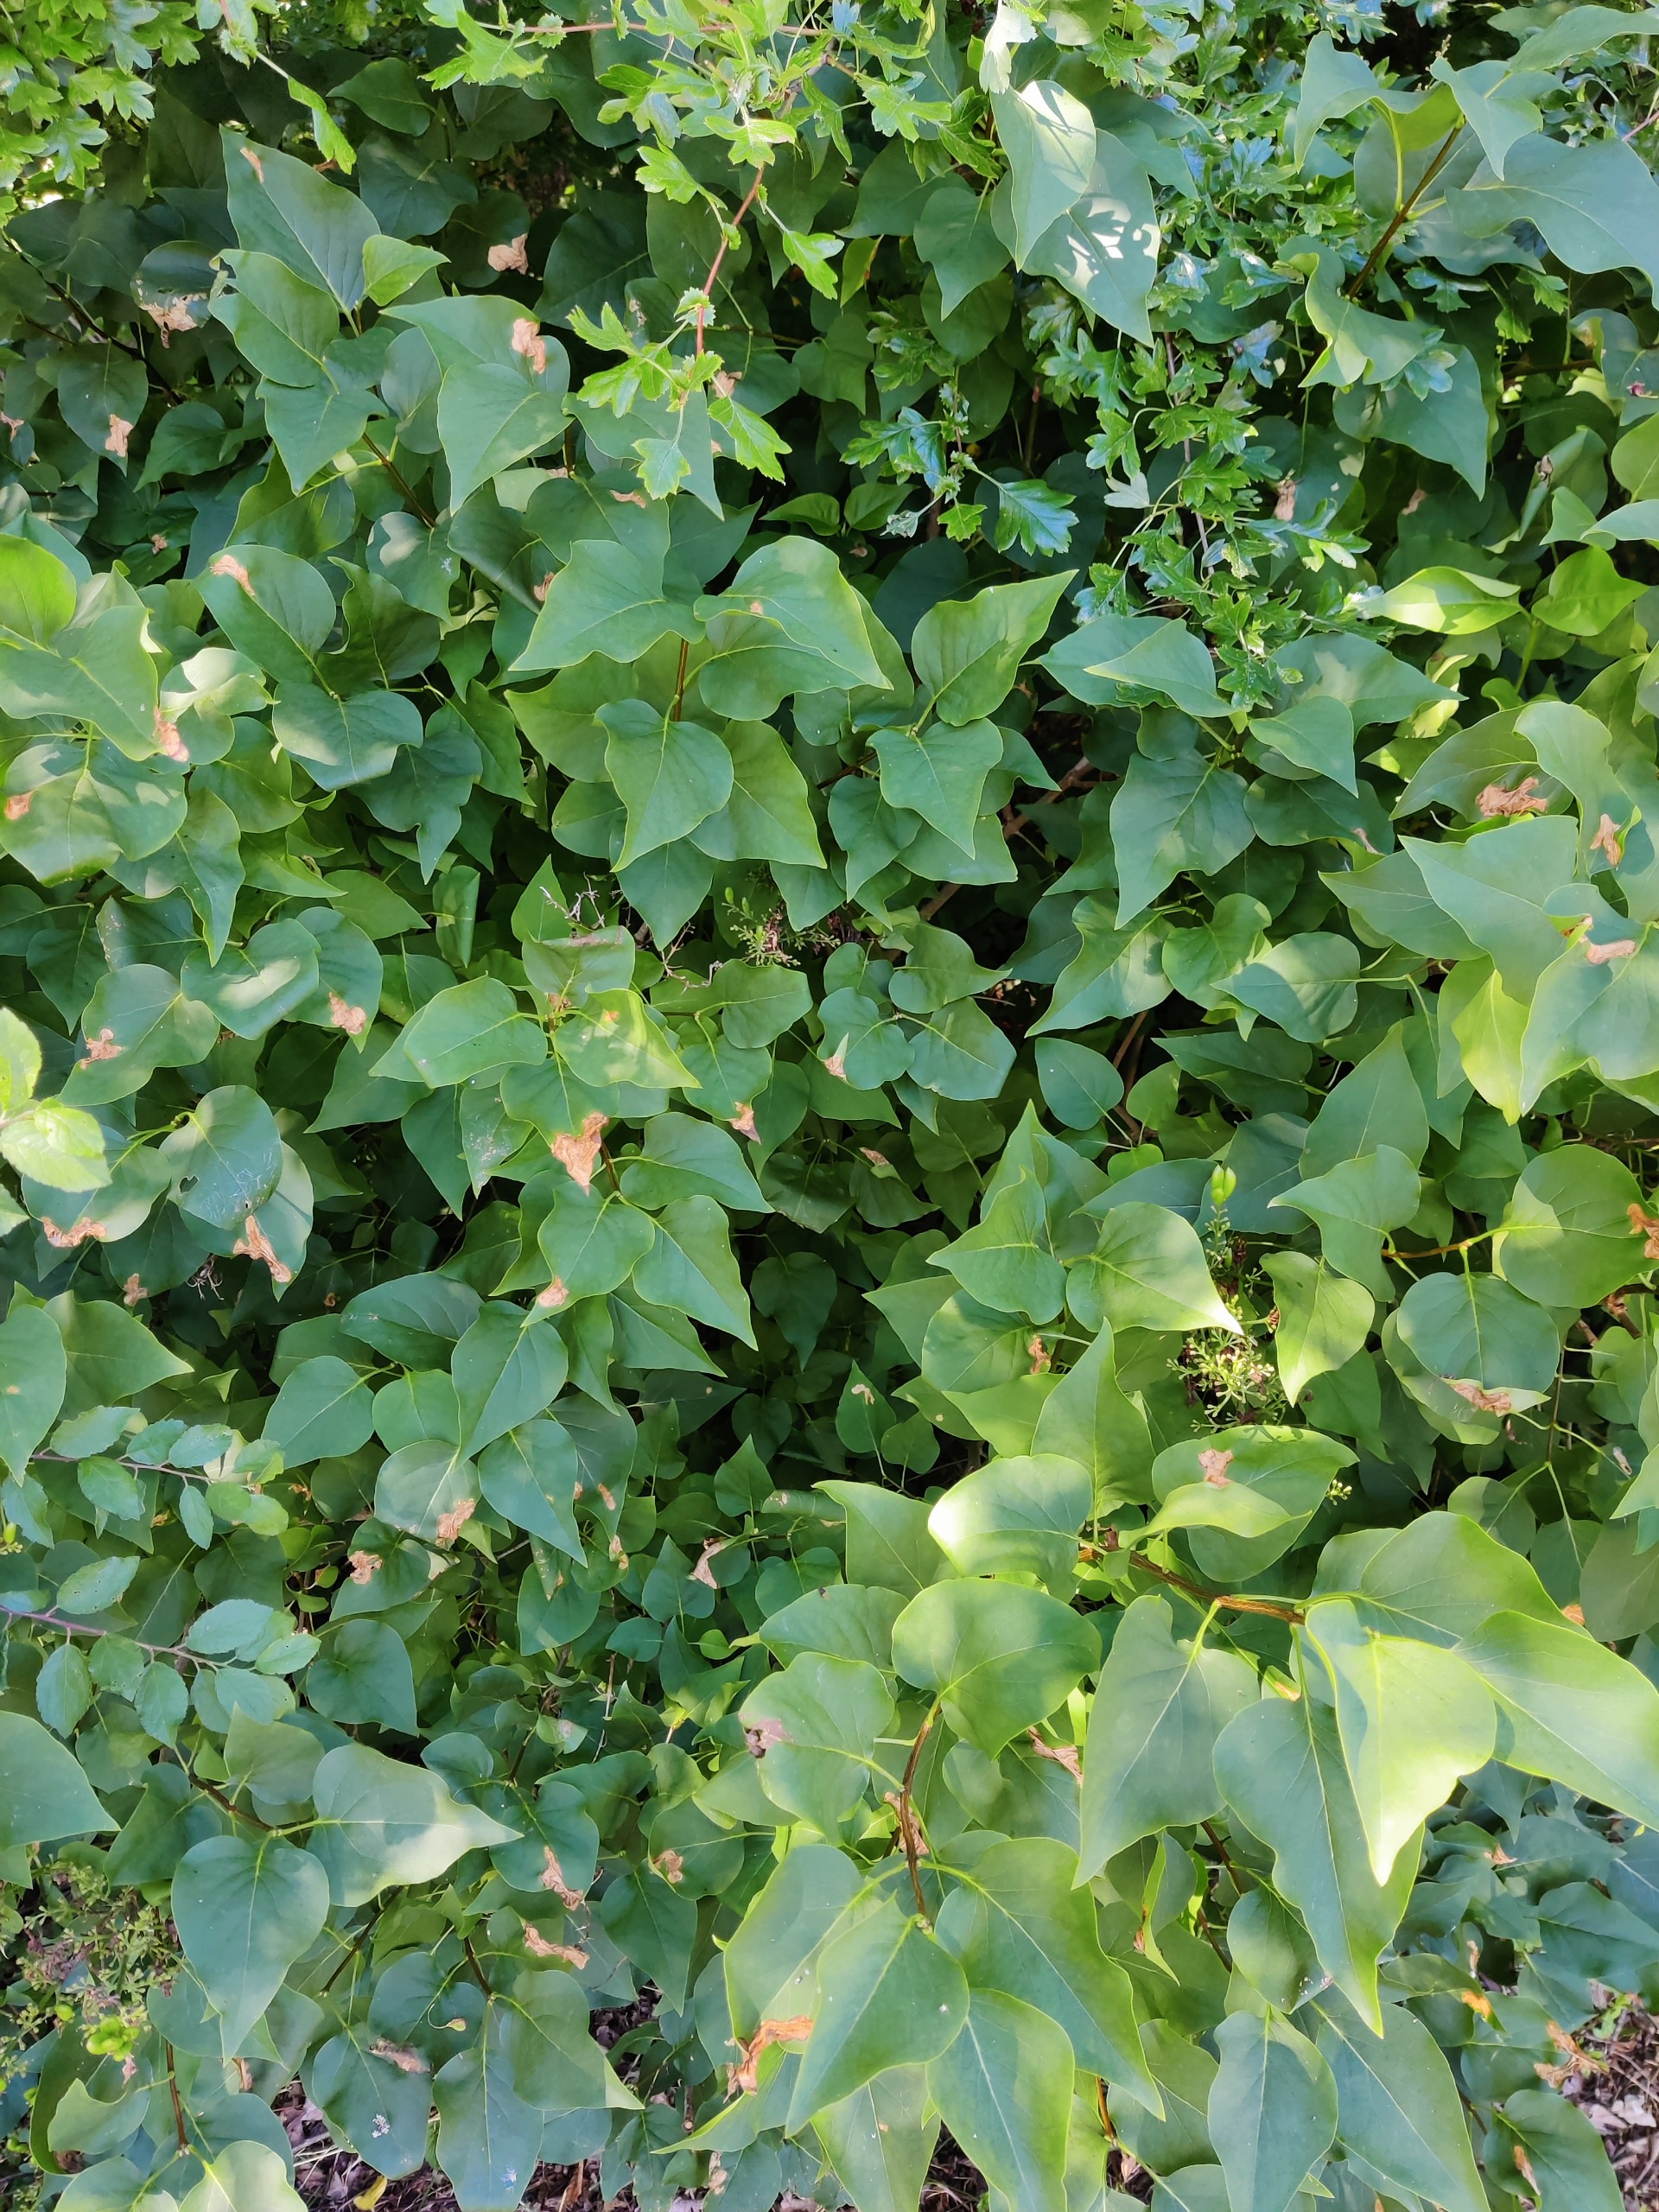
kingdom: Plantae
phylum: Tracheophyta
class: Magnoliopsida
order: Lamiales
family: Oleaceae
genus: Syringa
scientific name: Syringa vulgaris
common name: Syren
